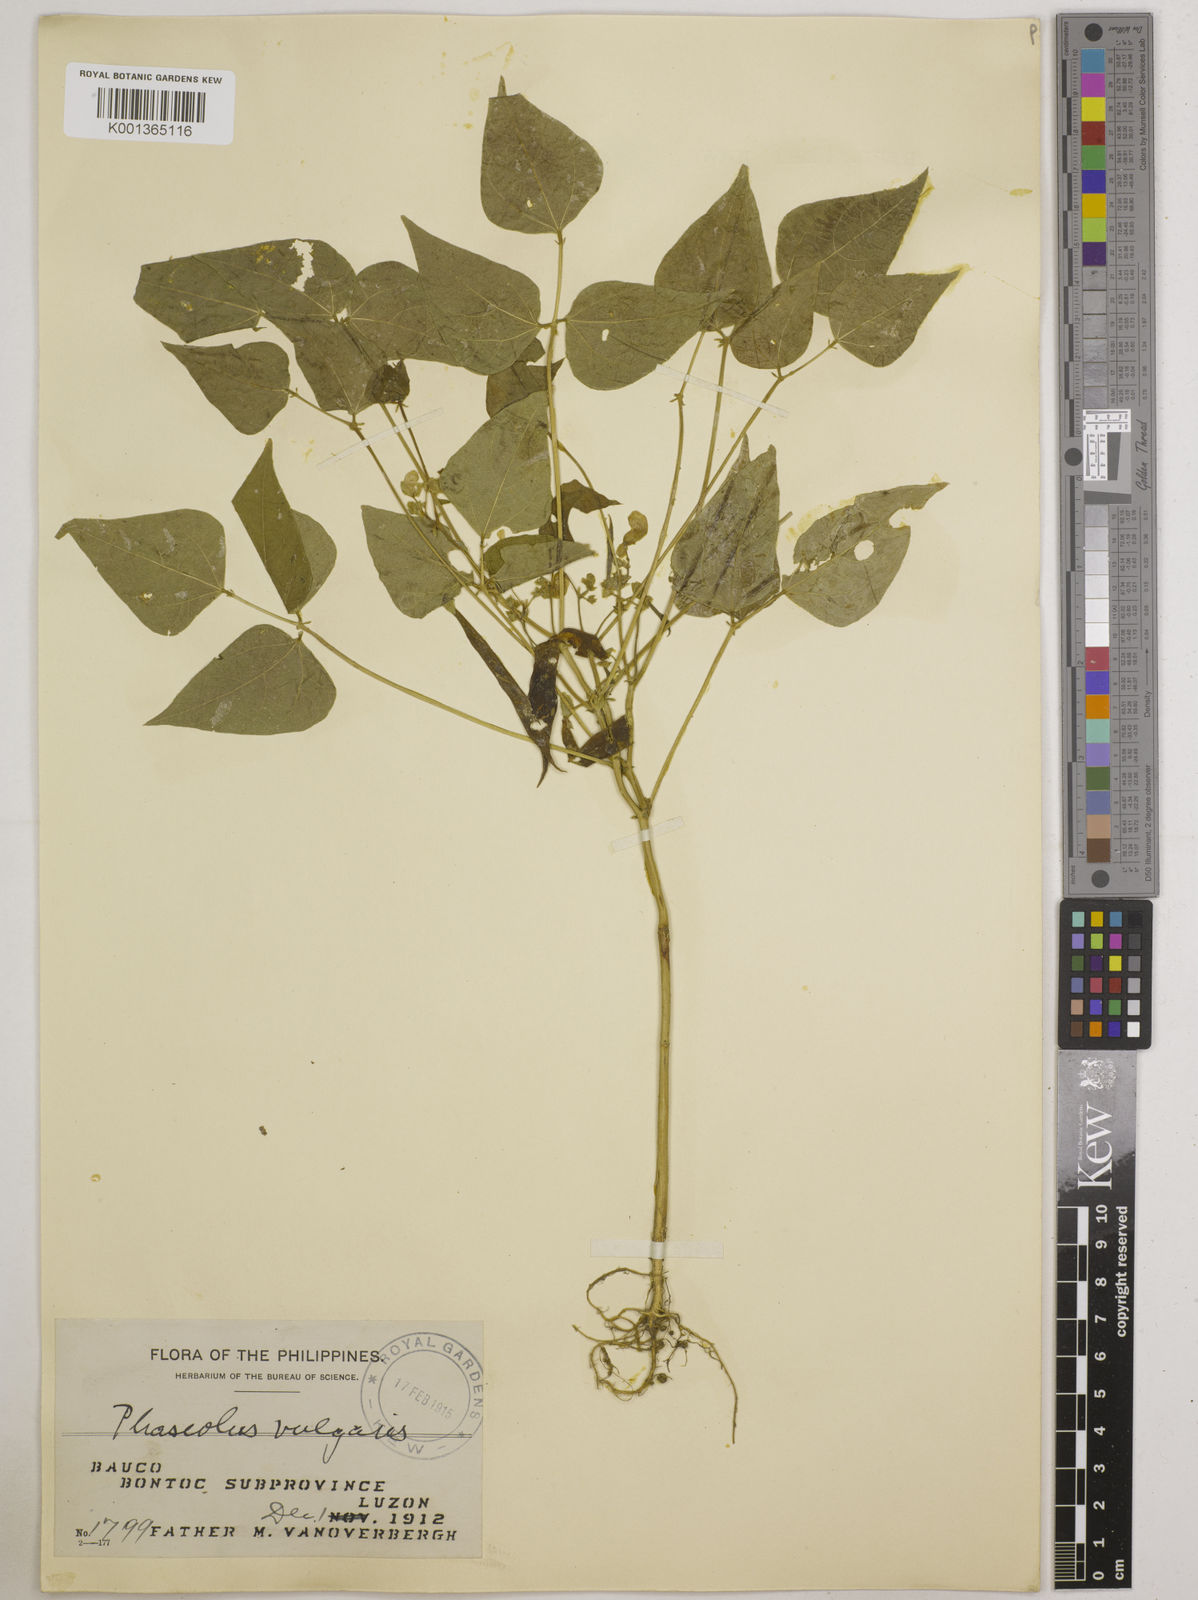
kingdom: Plantae
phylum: Tracheophyta
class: Magnoliopsida
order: Fabales
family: Fabaceae
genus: Phaseolus
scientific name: Phaseolus vulgaris
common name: Bean
